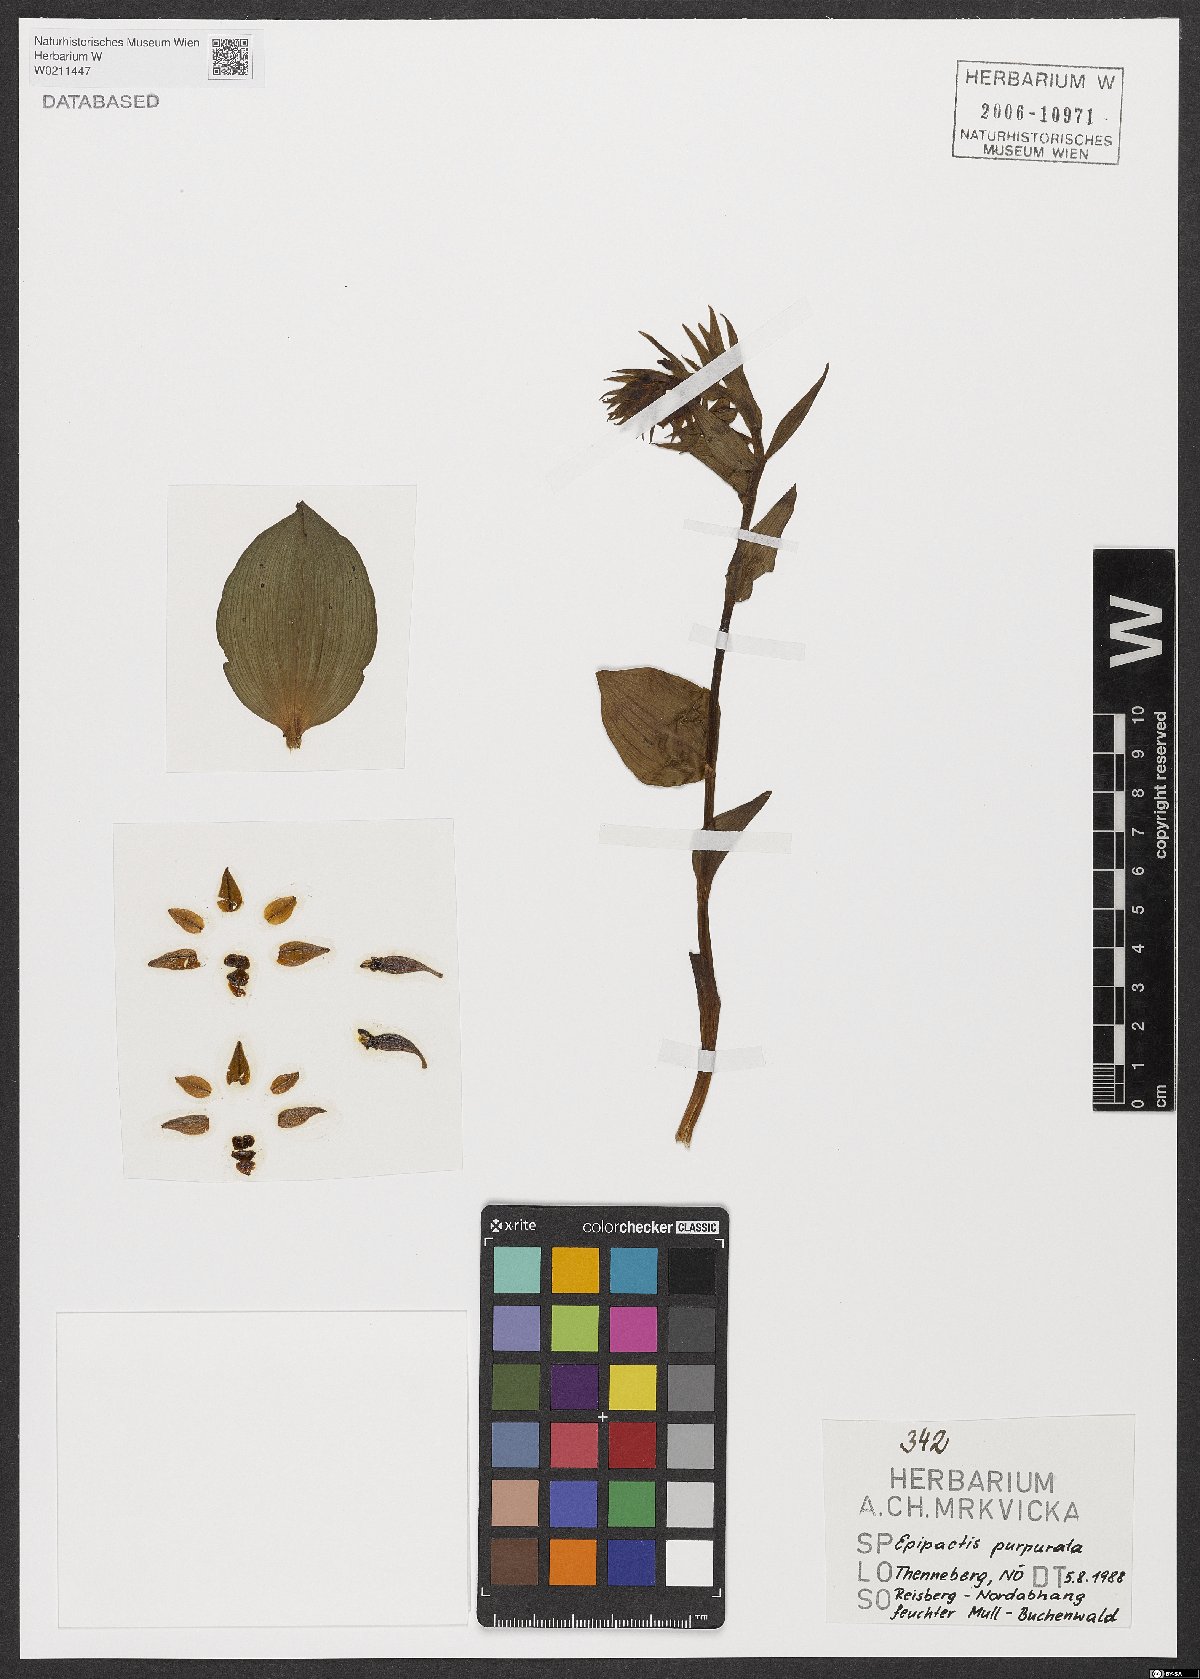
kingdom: Plantae
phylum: Tracheophyta
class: Liliopsida
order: Asparagales
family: Orchidaceae
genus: Epipactis
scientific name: Epipactis purpurata
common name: Violet helleborine
